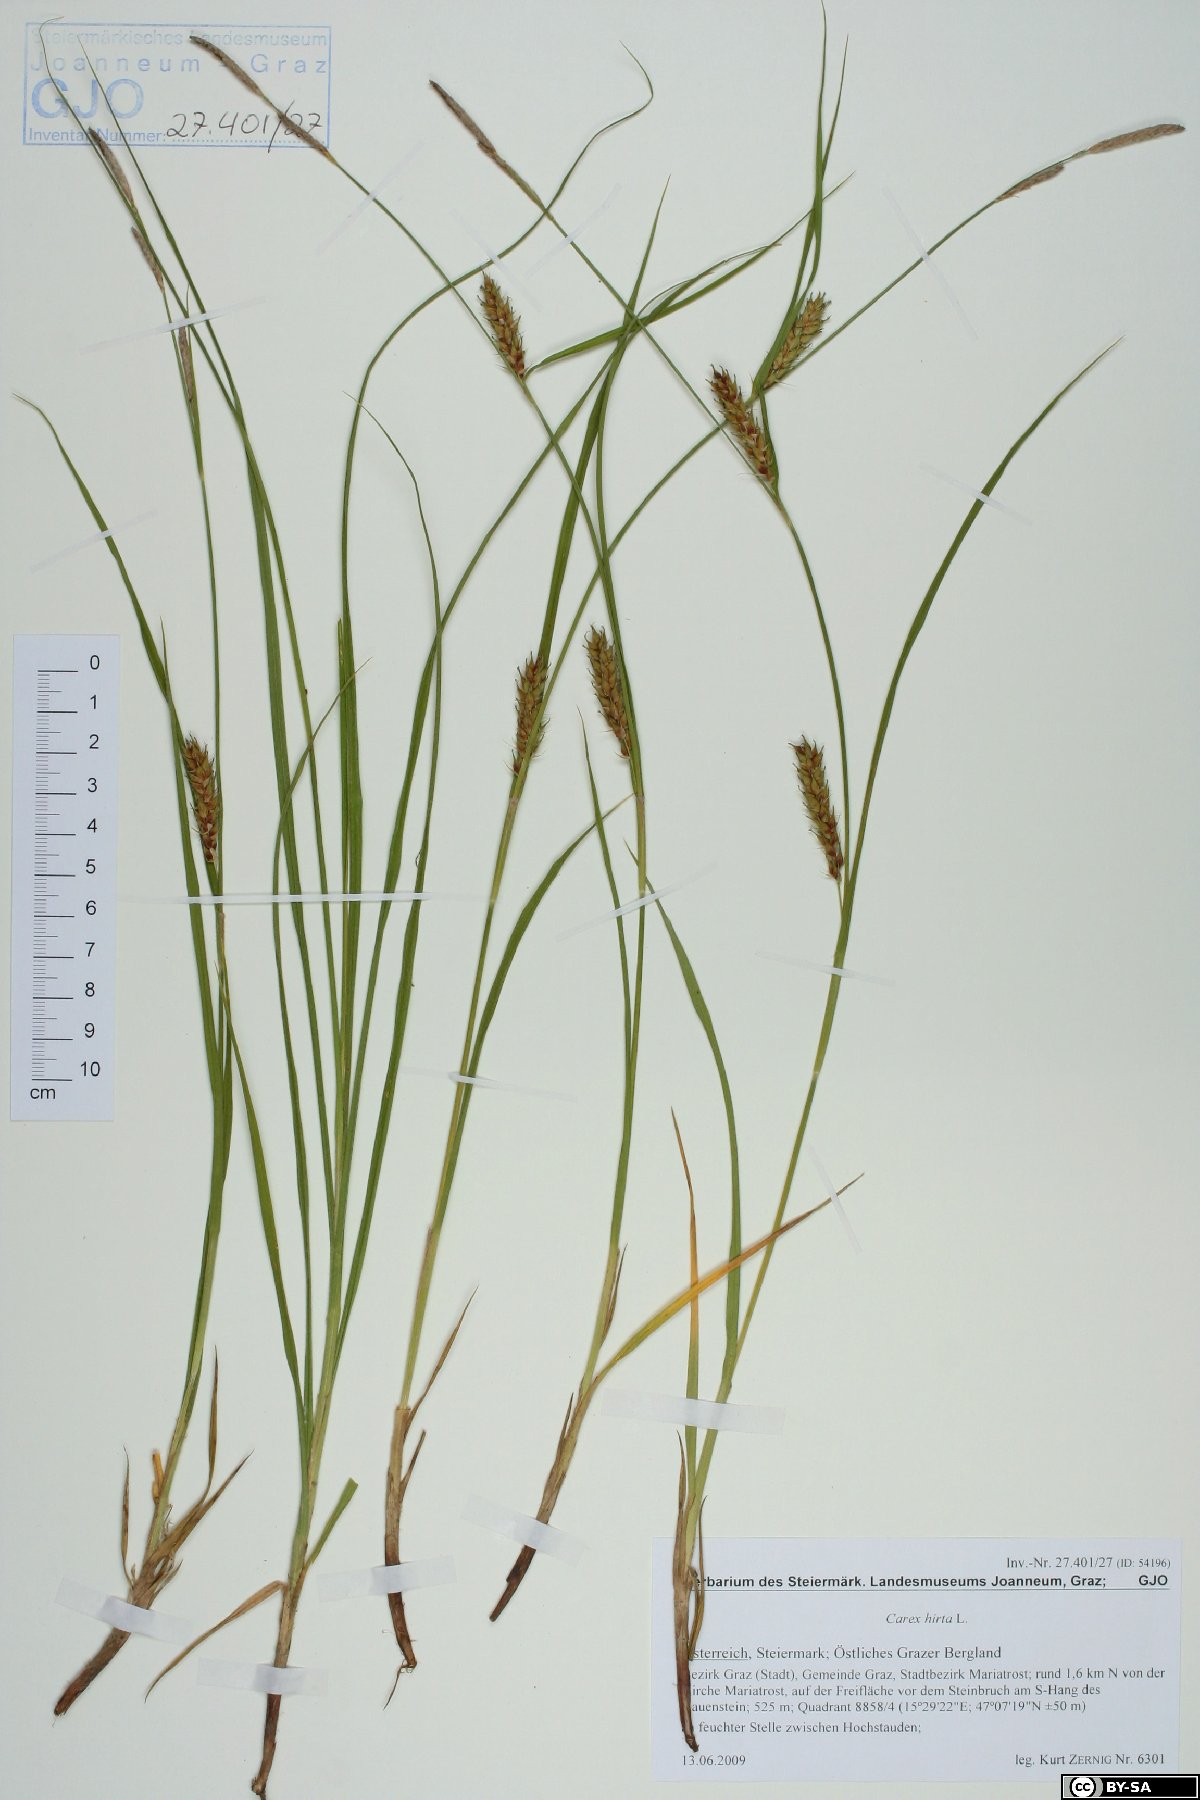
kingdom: Plantae
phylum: Tracheophyta
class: Liliopsida
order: Poales
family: Cyperaceae
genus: Carex
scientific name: Carex hirta
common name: Hairy sedge
